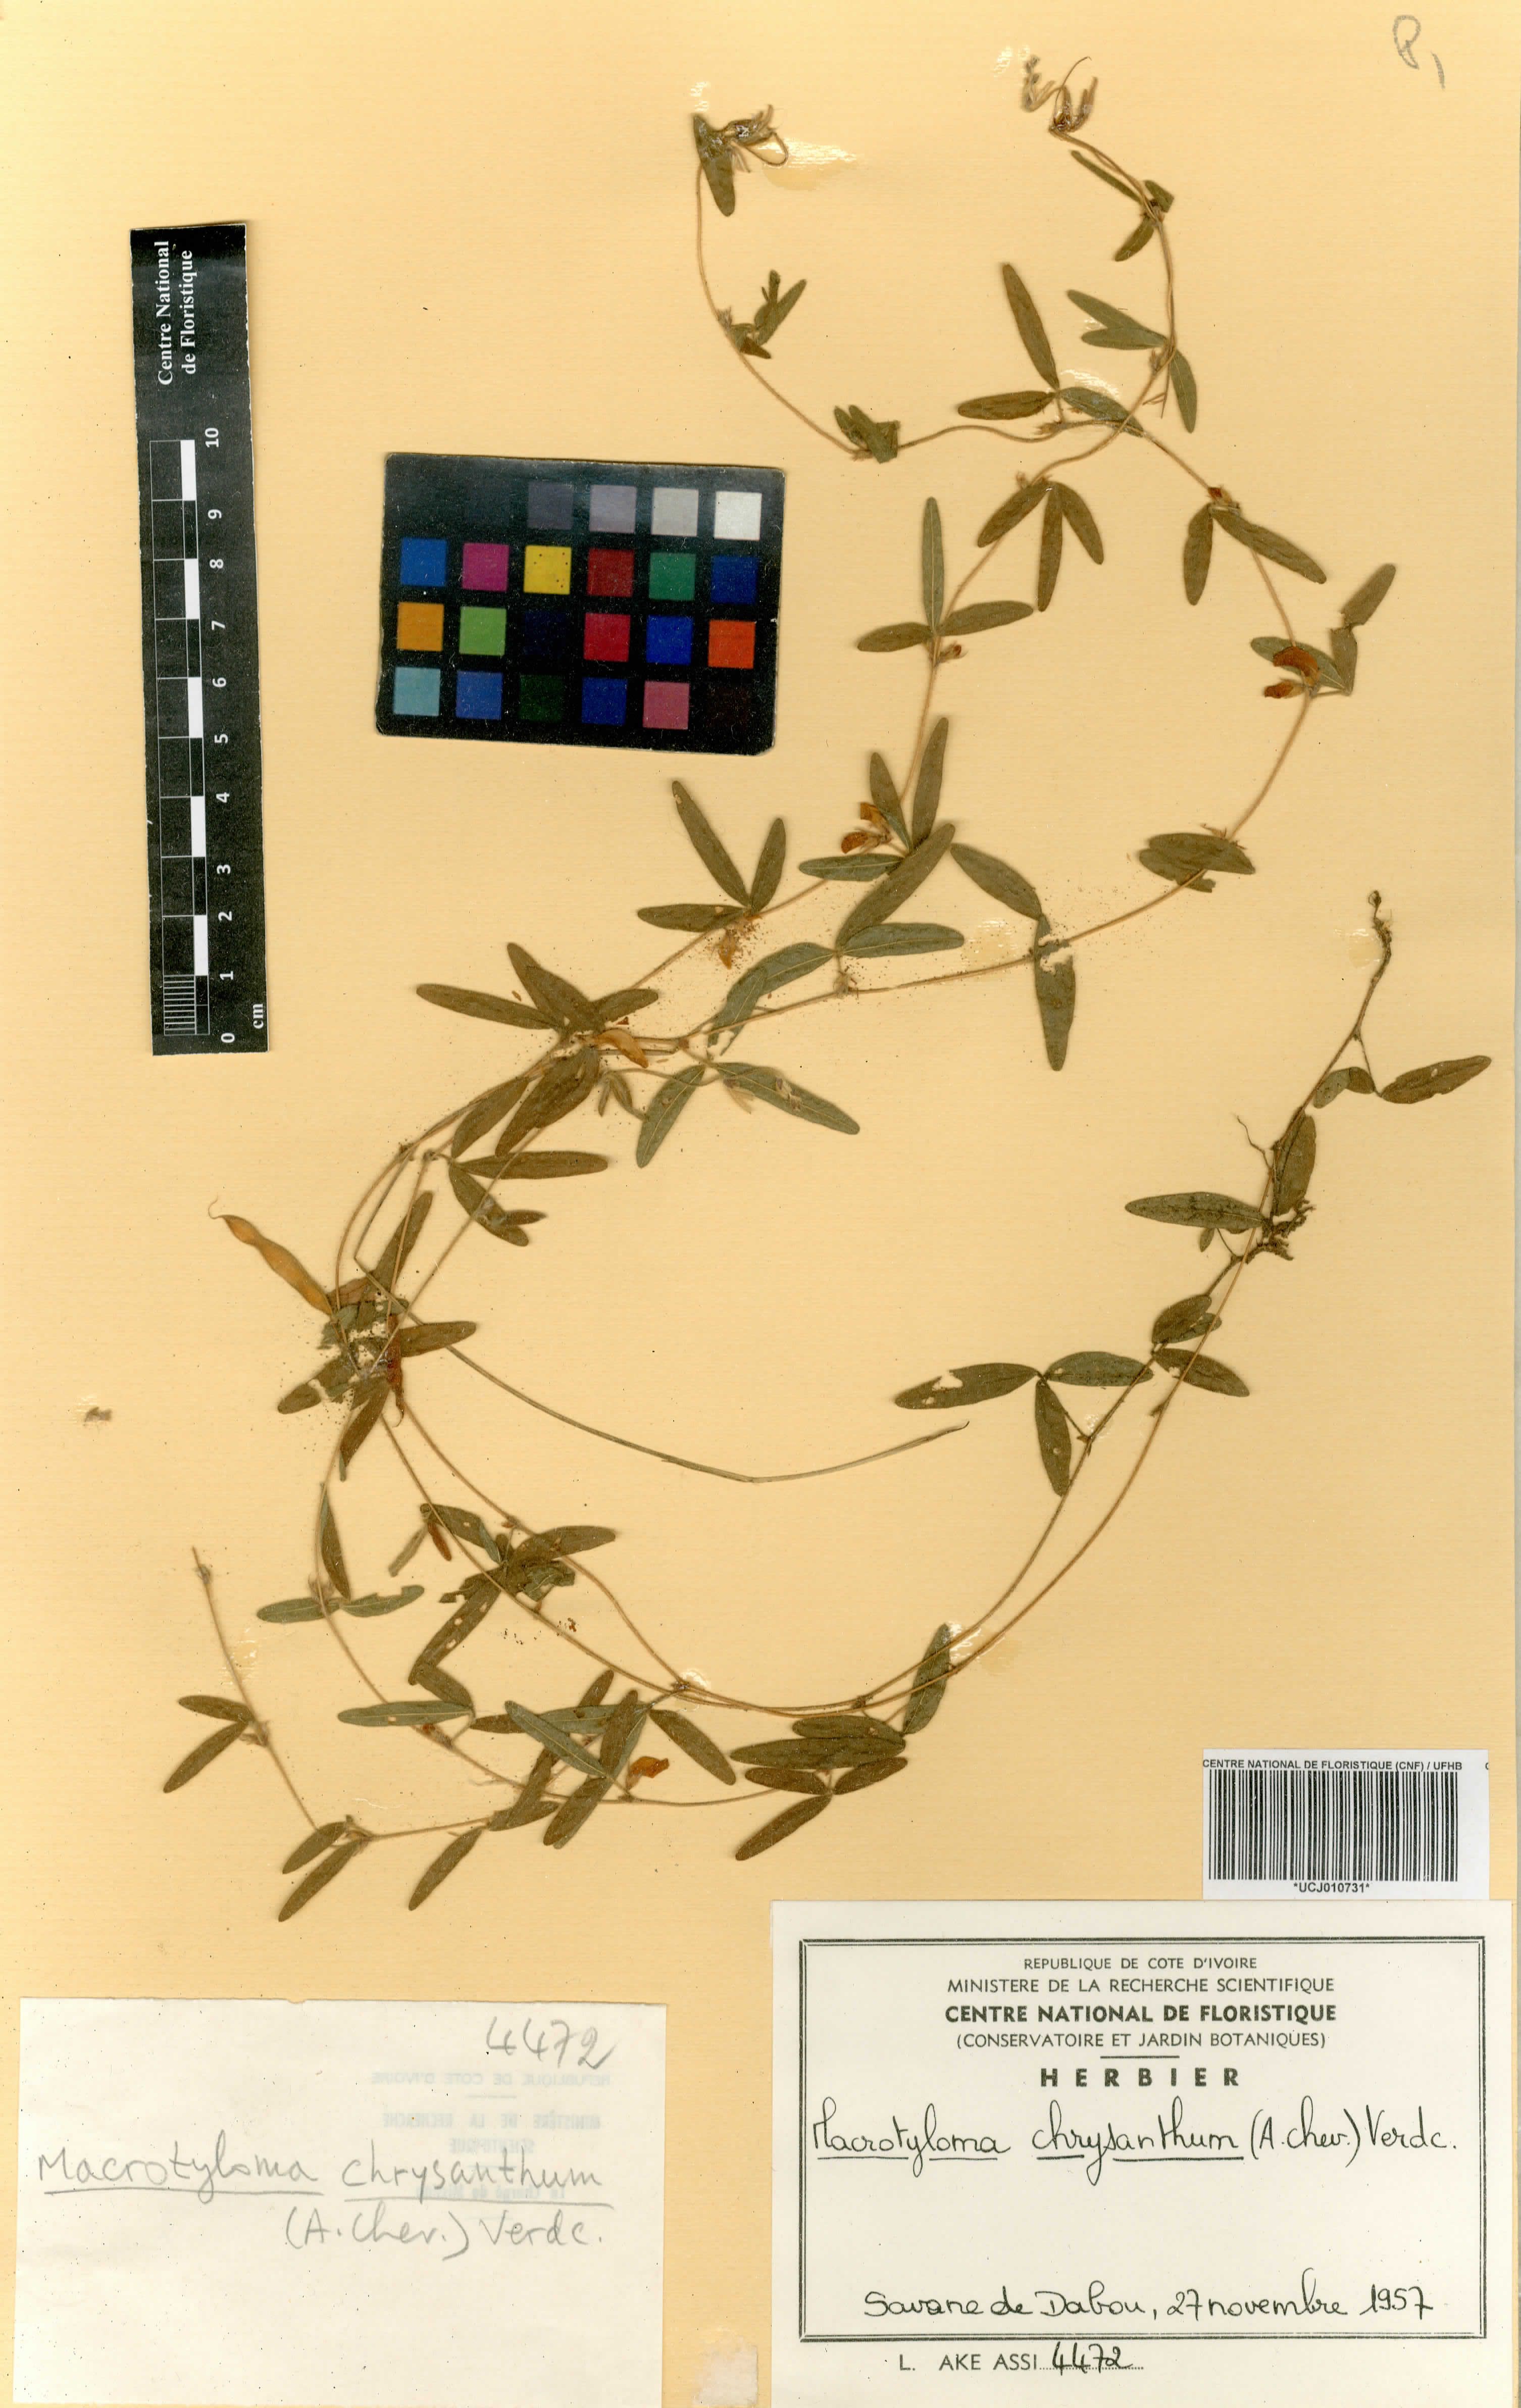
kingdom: Plantae
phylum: Tracheophyta
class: Magnoliopsida
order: Fabales
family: Fabaceae
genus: Macrotyloma
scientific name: Macrotyloma biflorum
